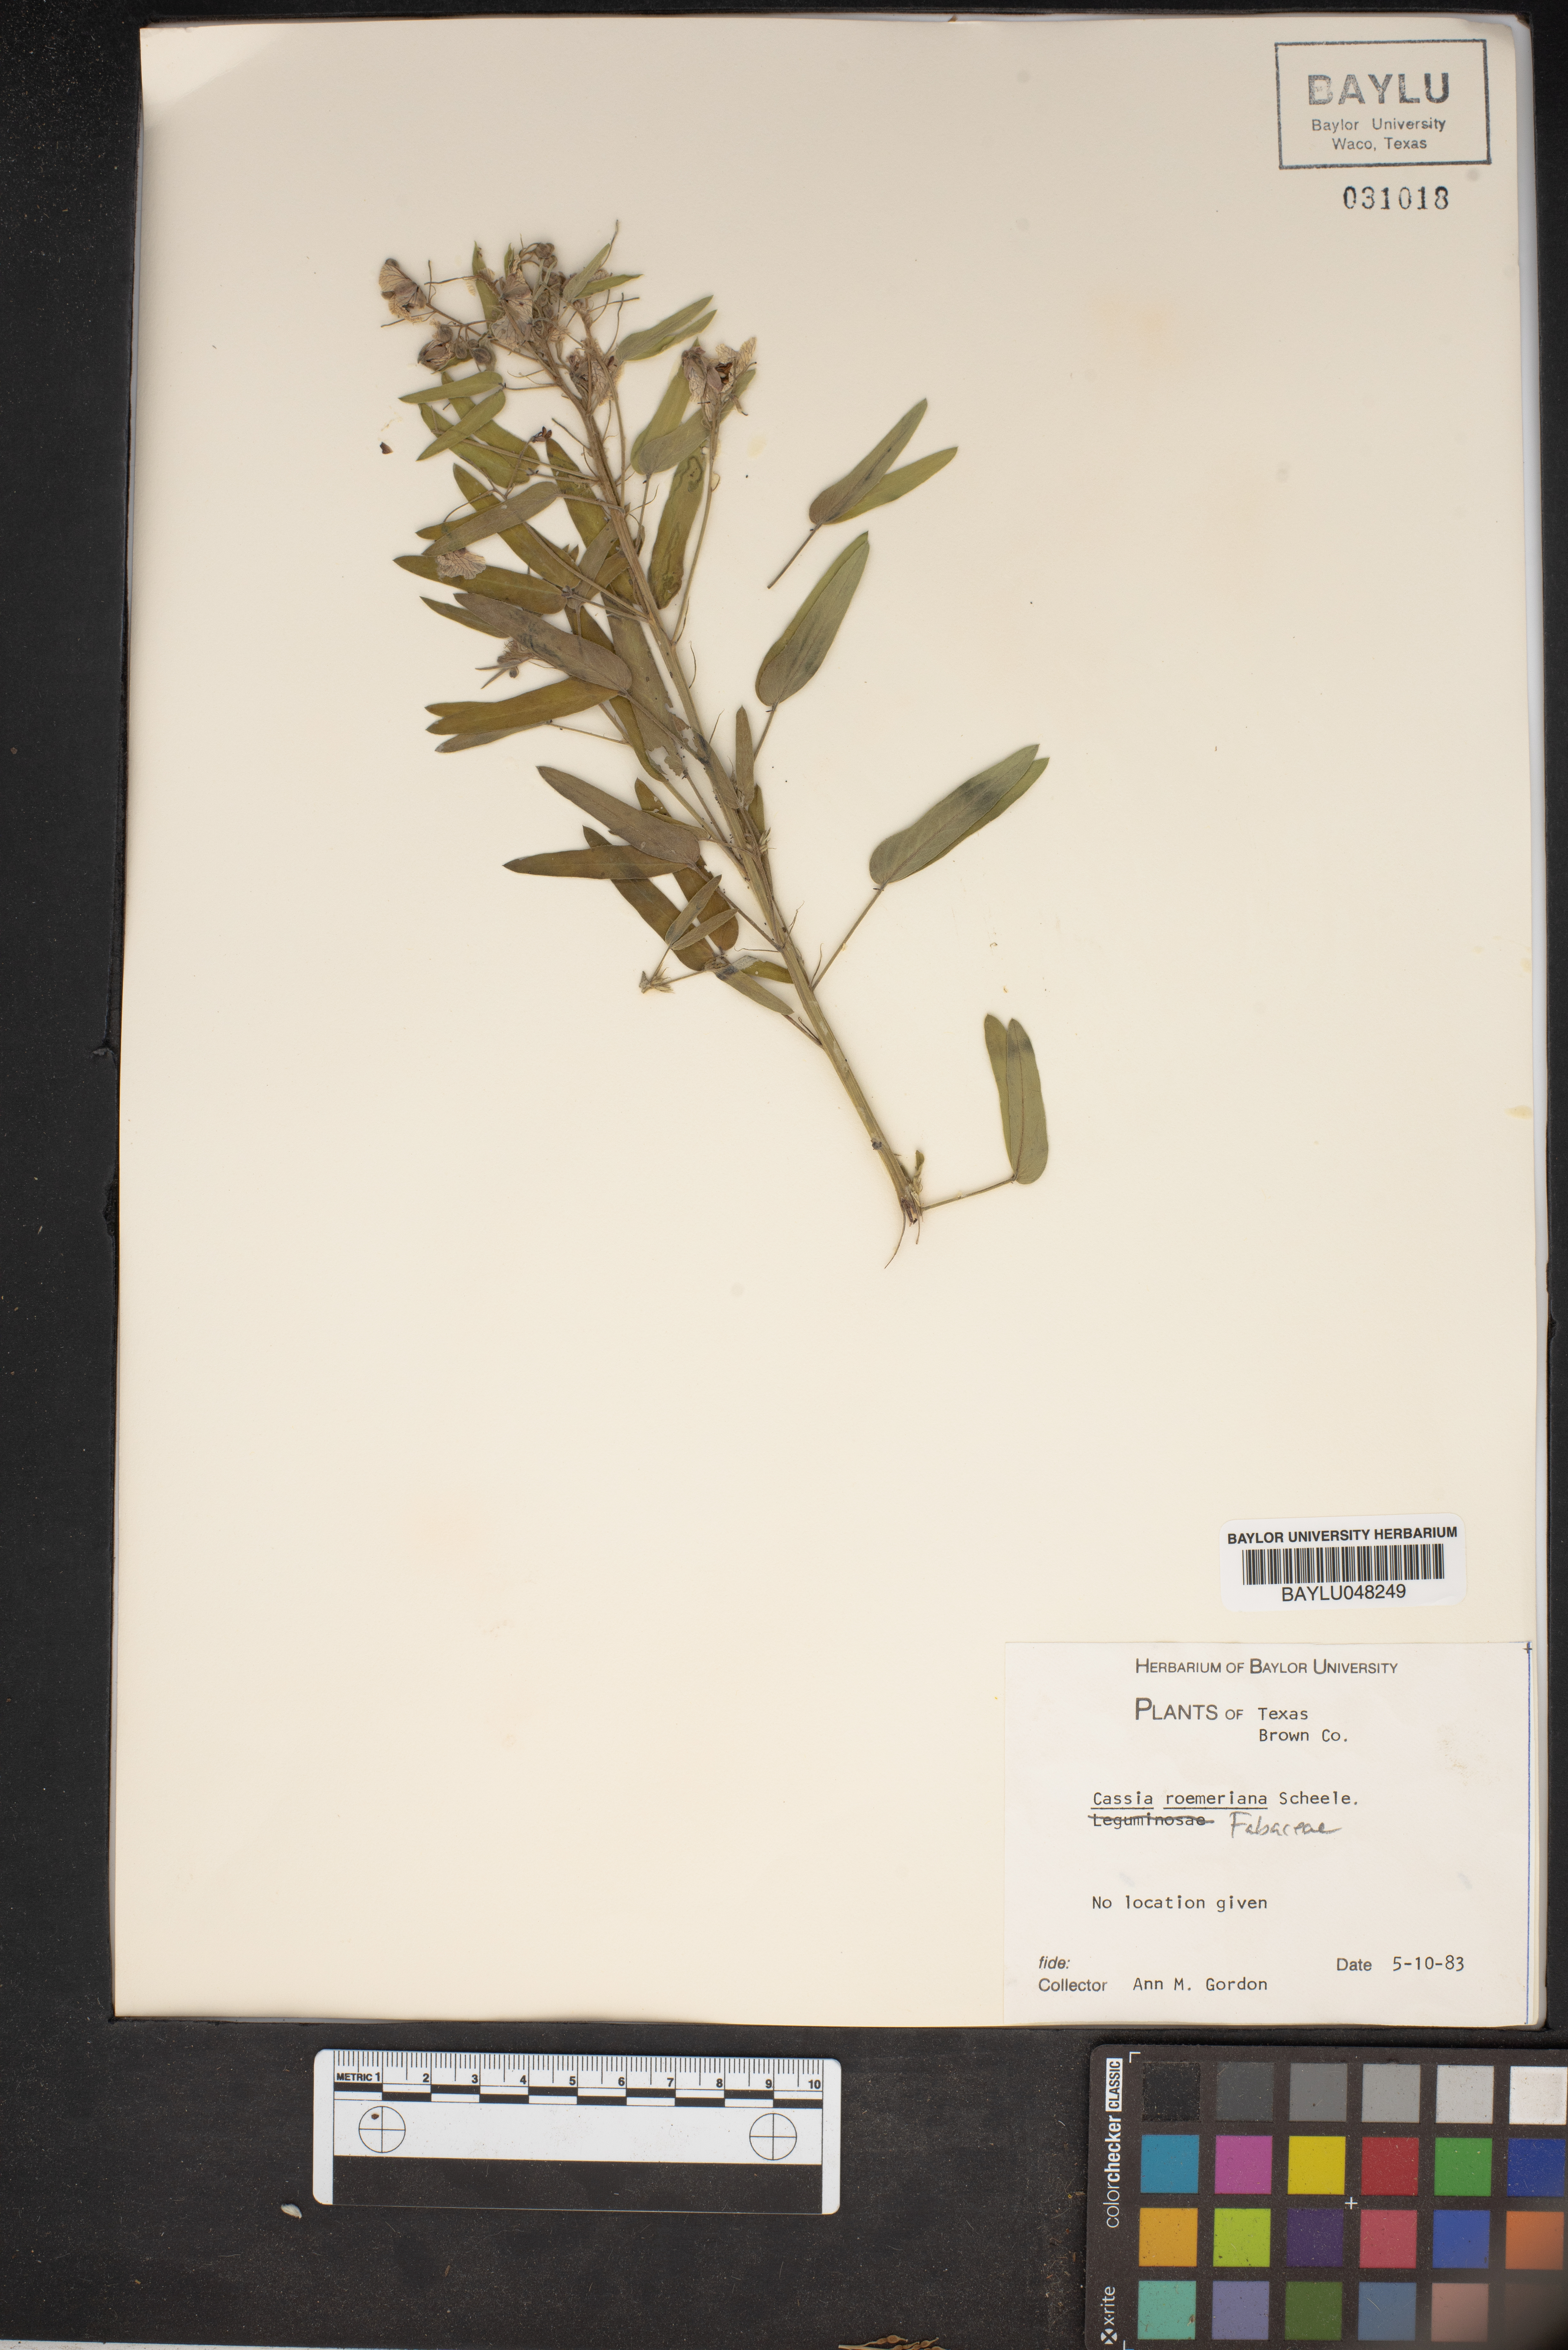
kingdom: Plantae
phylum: Tracheophyta
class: Magnoliopsida
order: Fabales
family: Fabaceae
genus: Senna
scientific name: Senna roemeriana
